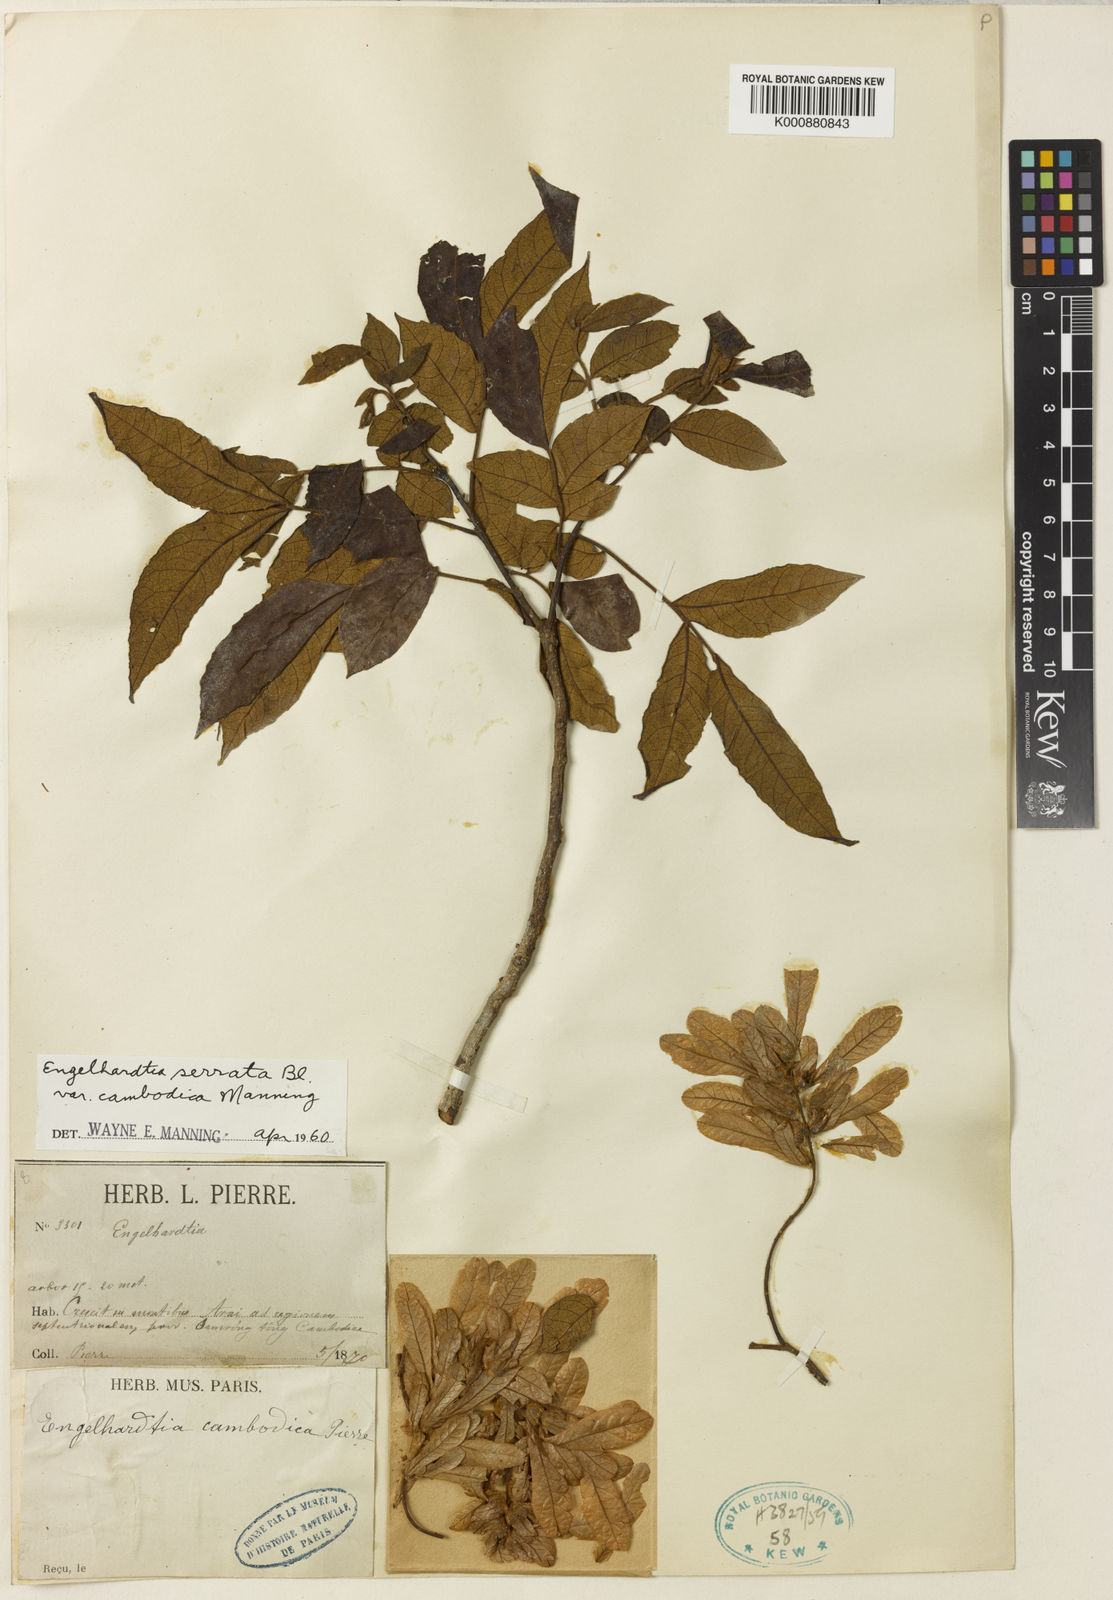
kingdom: Plantae
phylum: Tracheophyta
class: Magnoliopsida
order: Fagales
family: Juglandaceae
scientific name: Juglandaceae
